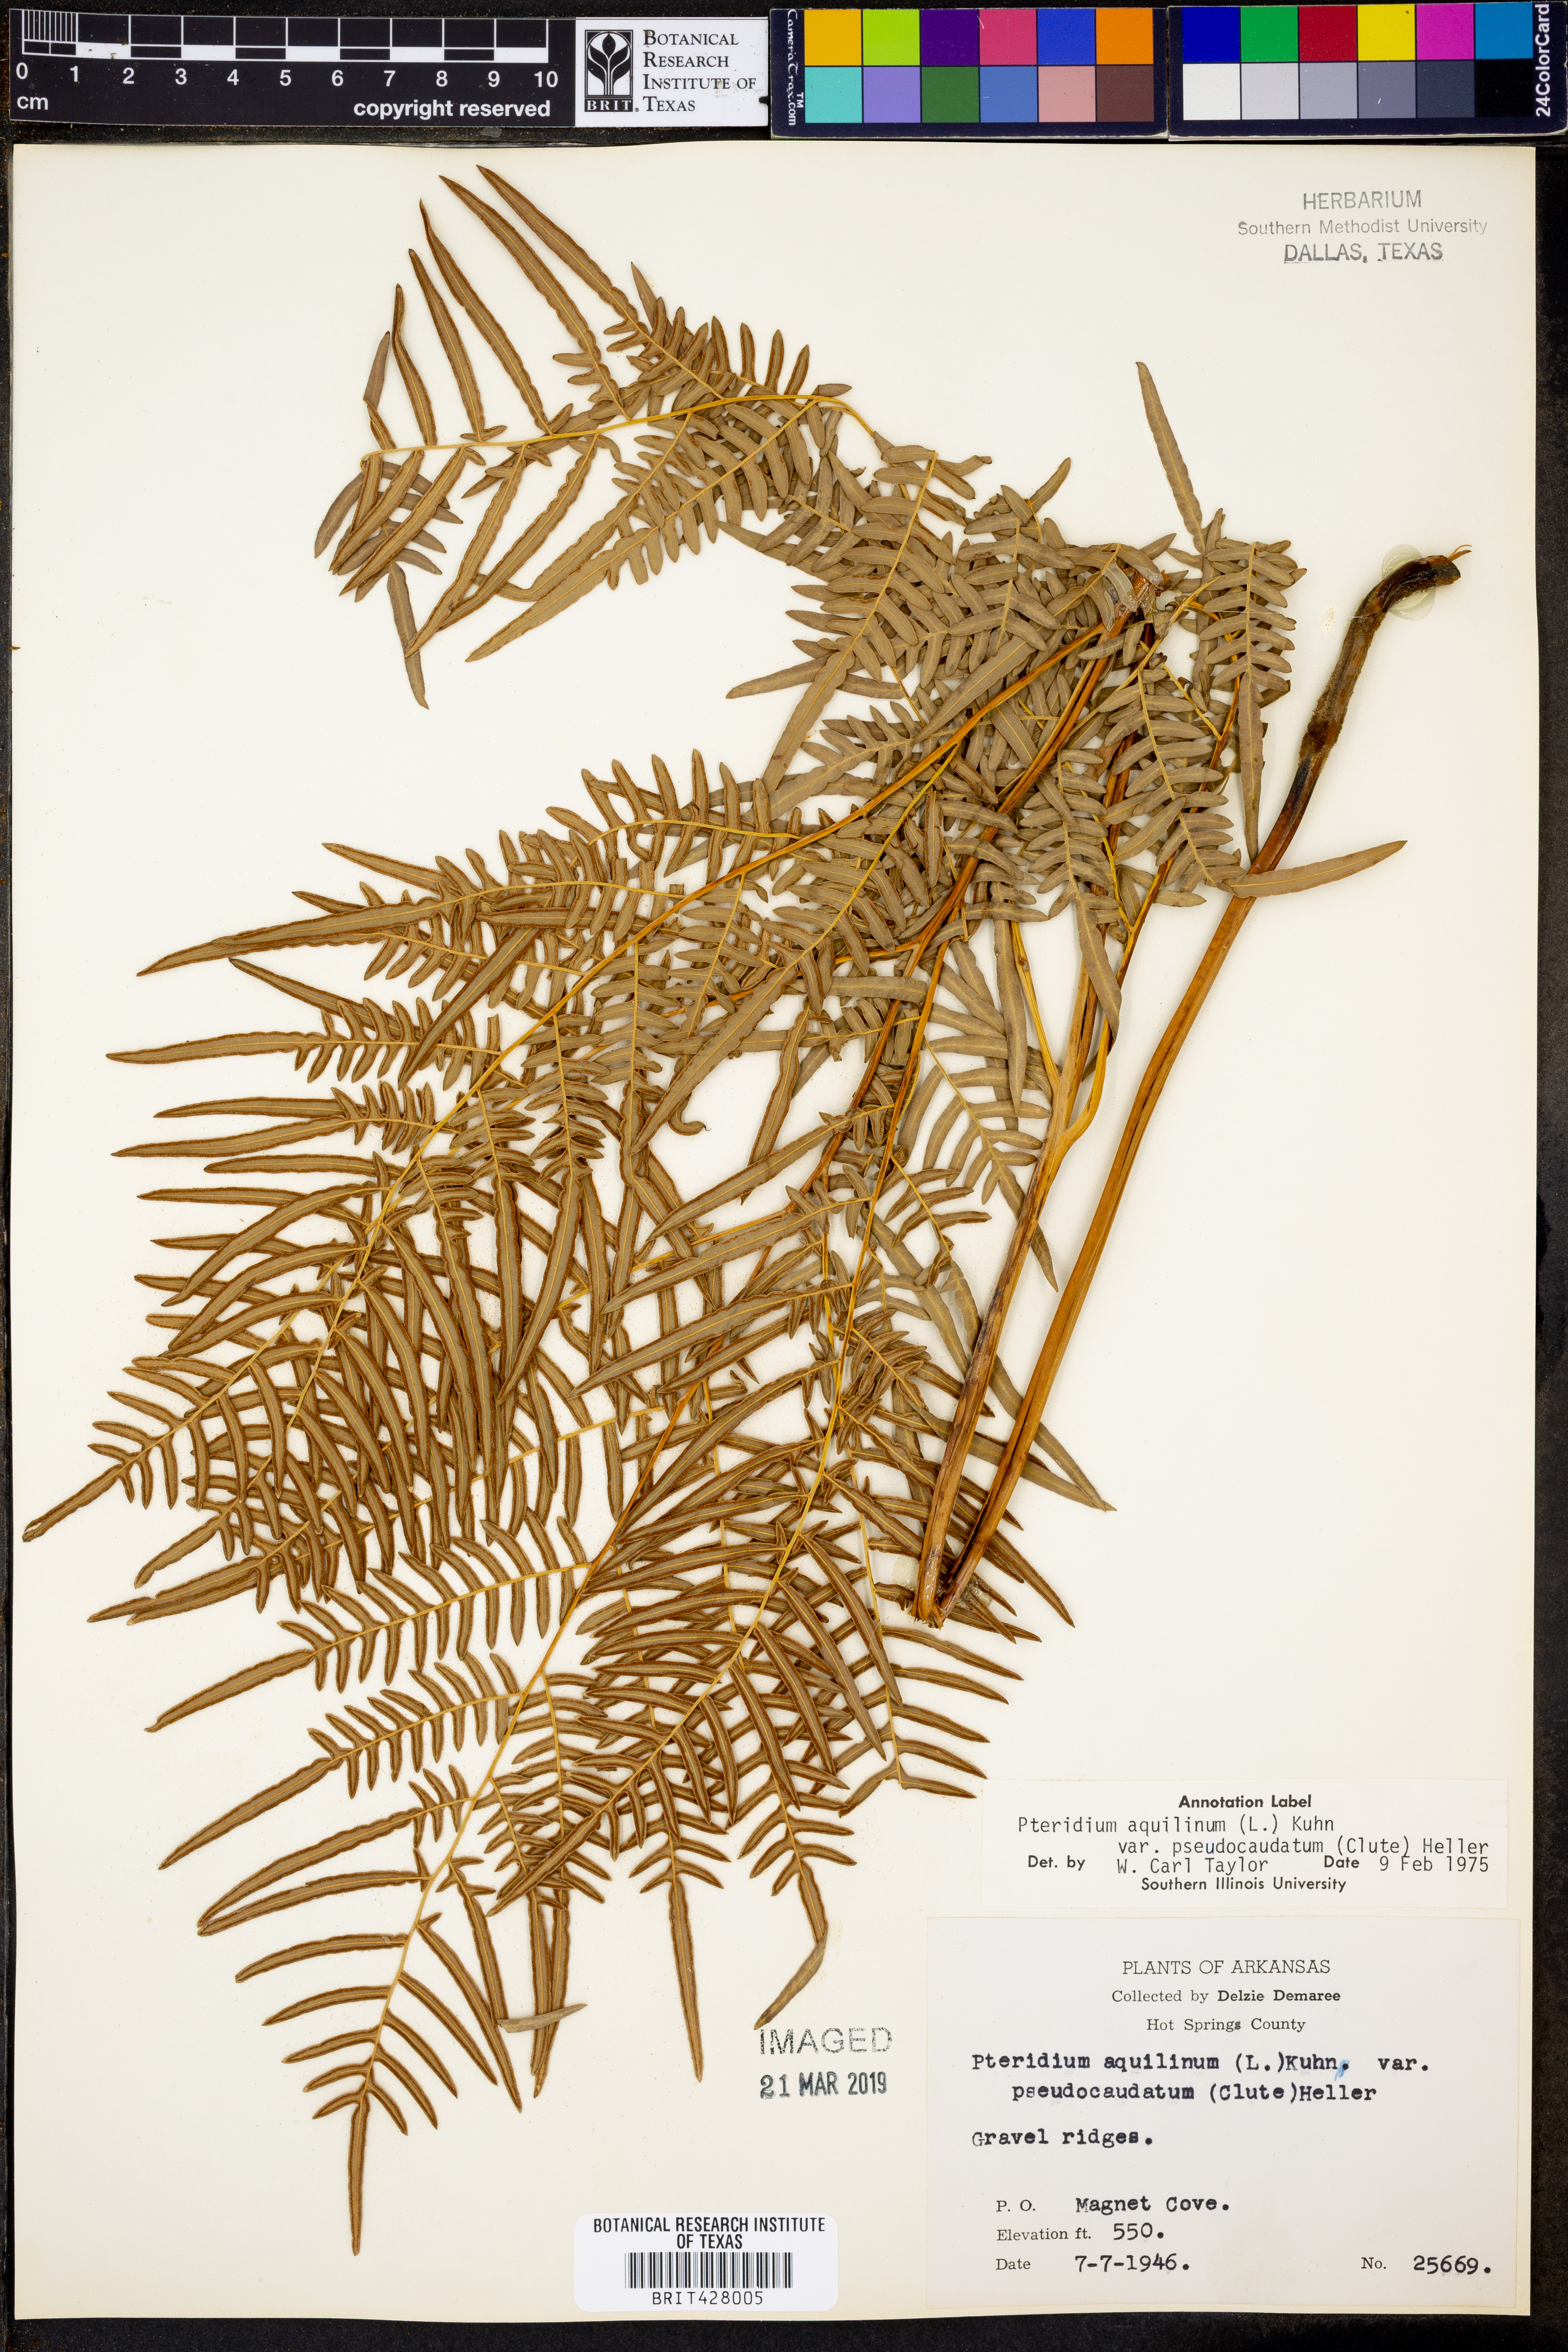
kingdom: Plantae
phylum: Tracheophyta
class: Polypodiopsida
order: Polypodiales
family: Dennstaedtiaceae
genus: Pteridium
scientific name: Pteridium aquilinum
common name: Bracken
